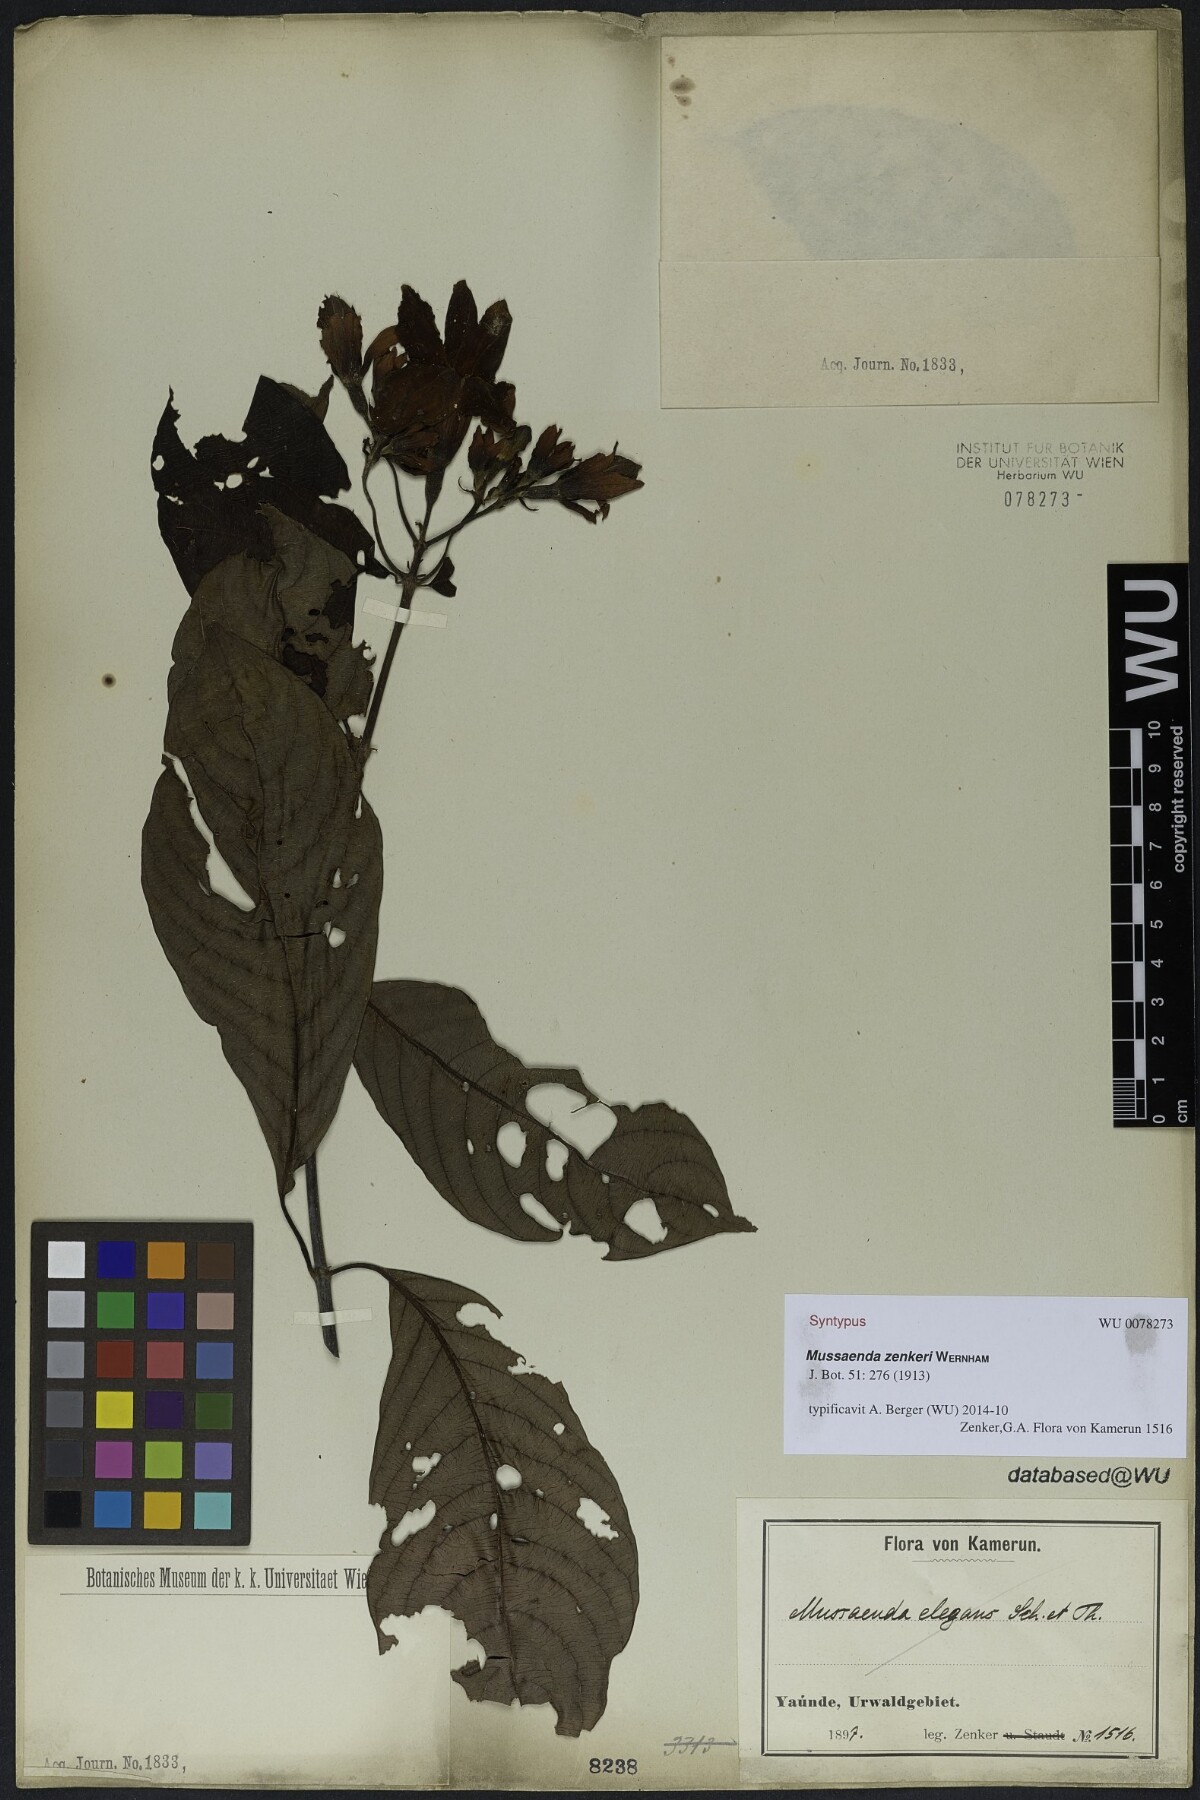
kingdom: Plantae
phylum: Tracheophyta
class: Magnoliopsida
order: Gentianales
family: Rubiaceae
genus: Mussaenda
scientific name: Mussaenda zenkeri
